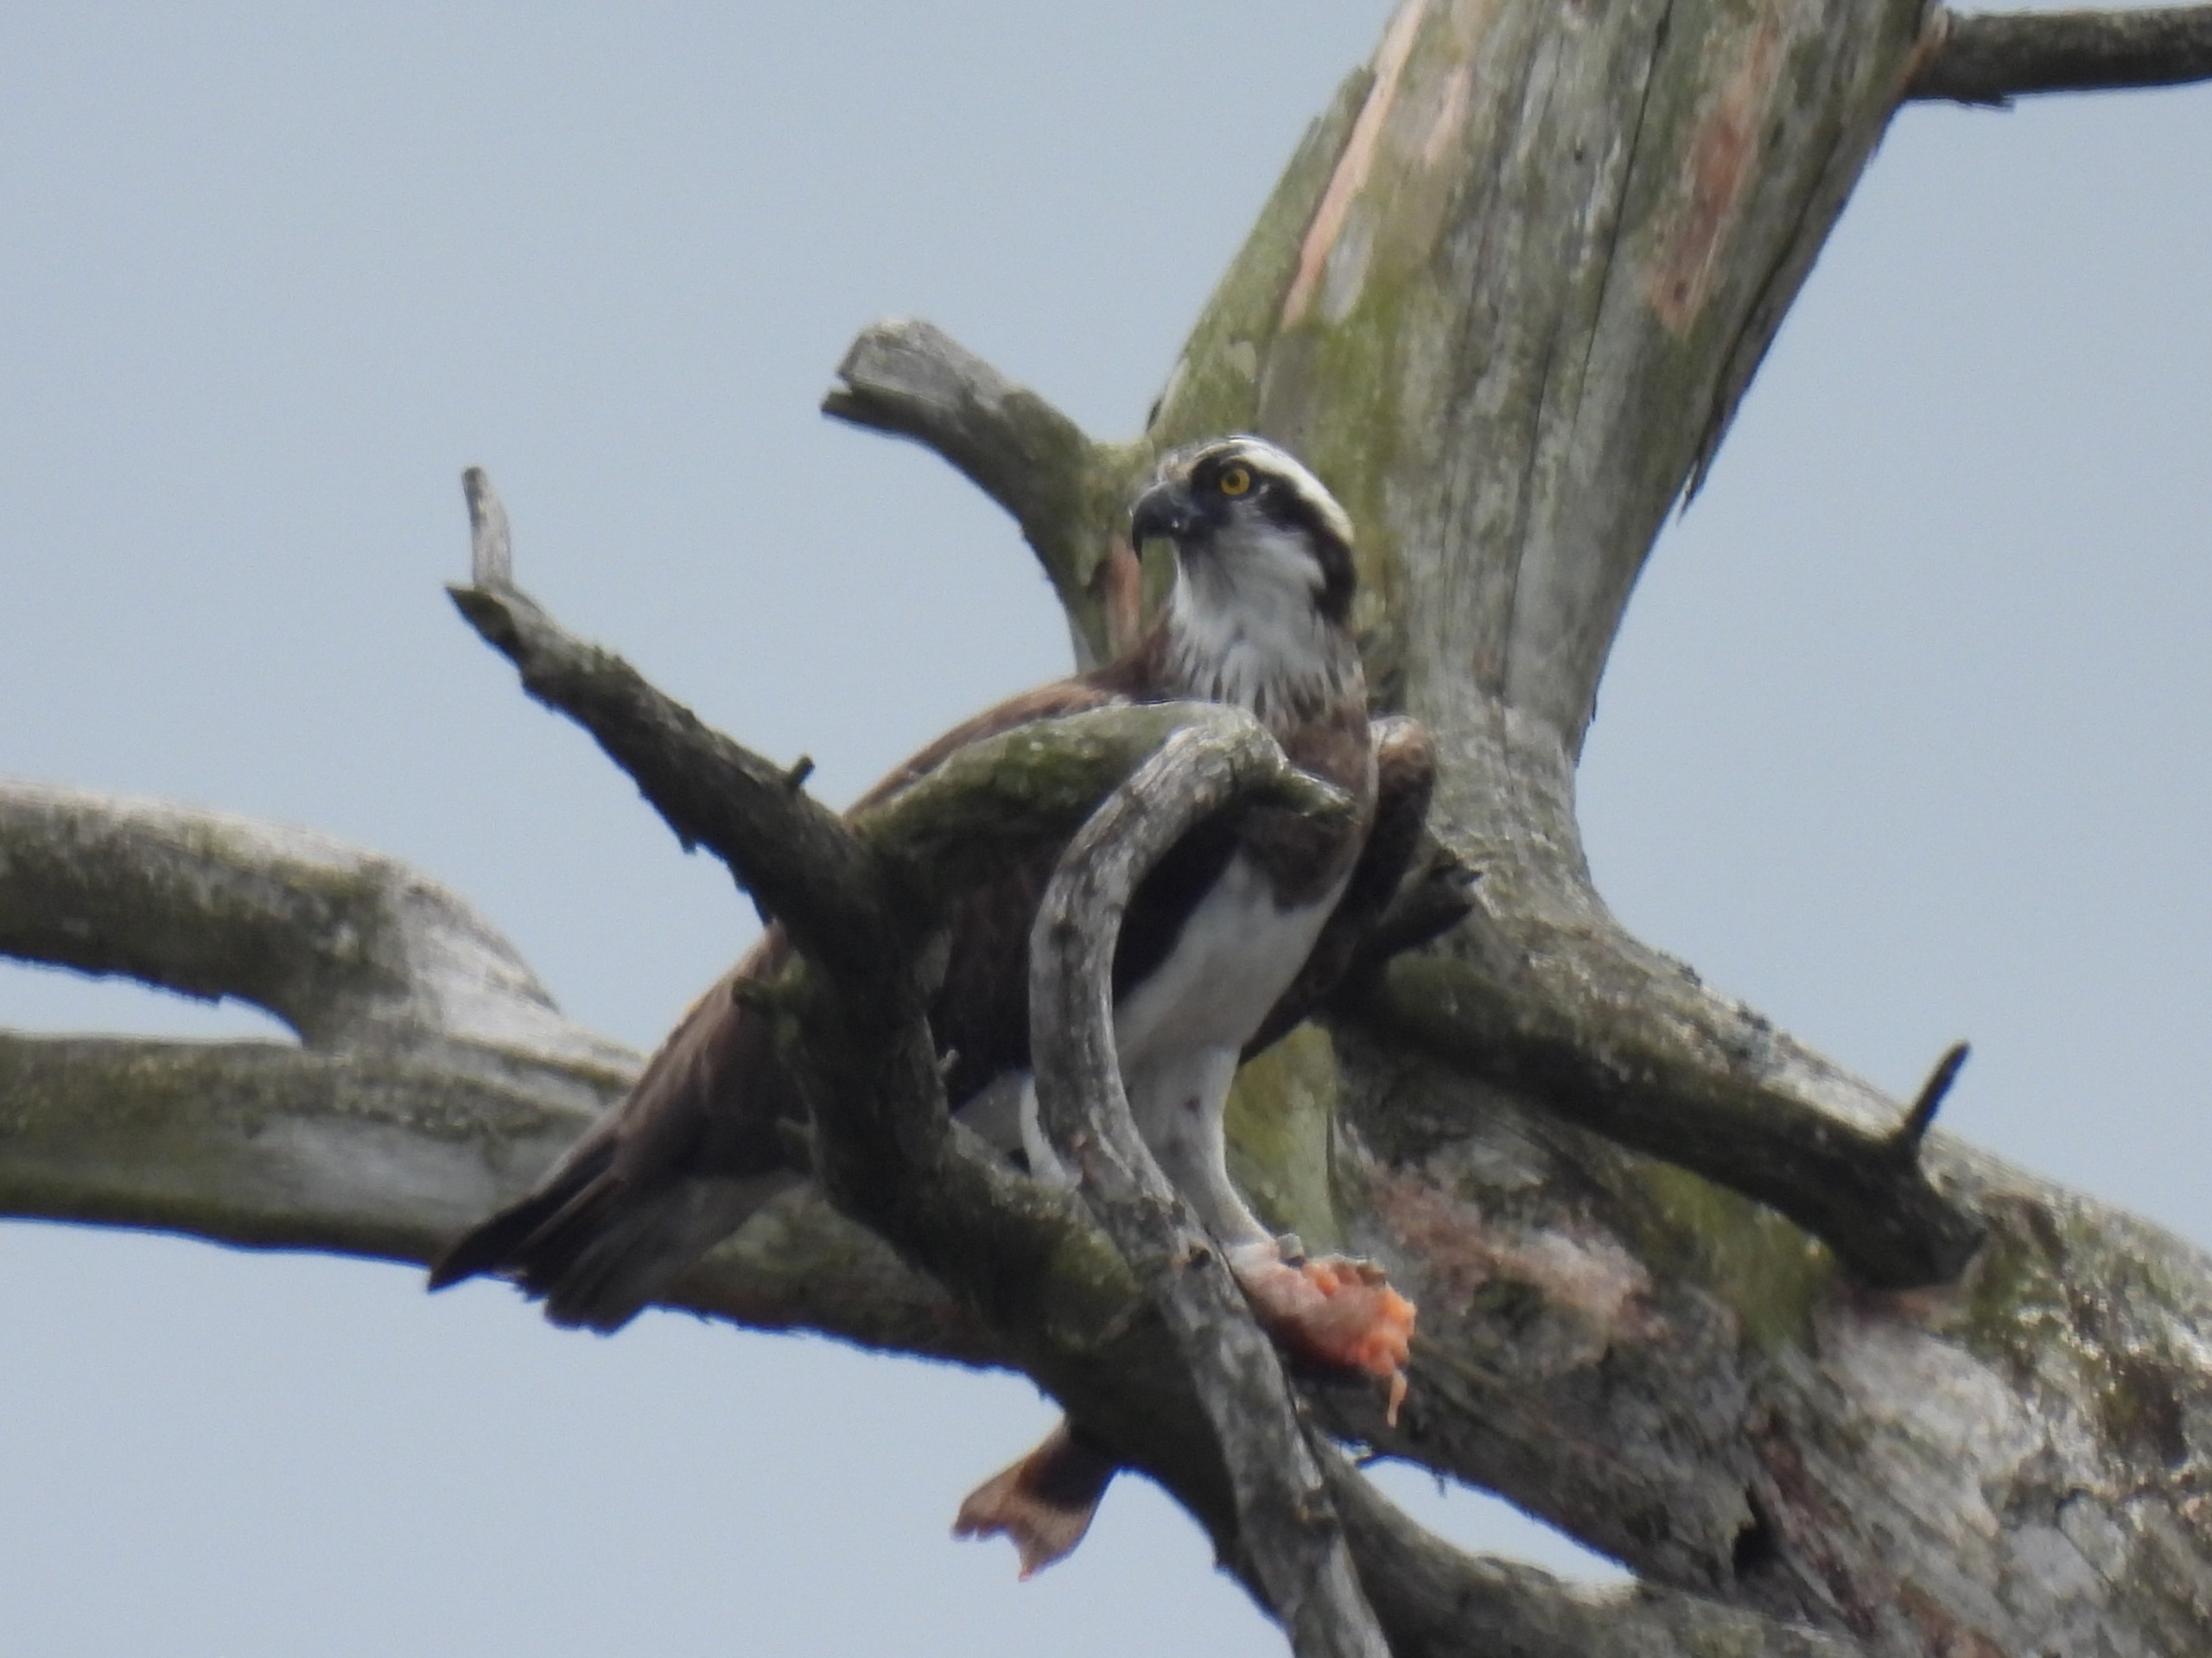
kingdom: Animalia
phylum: Chordata
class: Aves
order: Accipitriformes
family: Pandionidae
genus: Pandion
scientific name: Pandion haliaetus
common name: Fiskeørn
